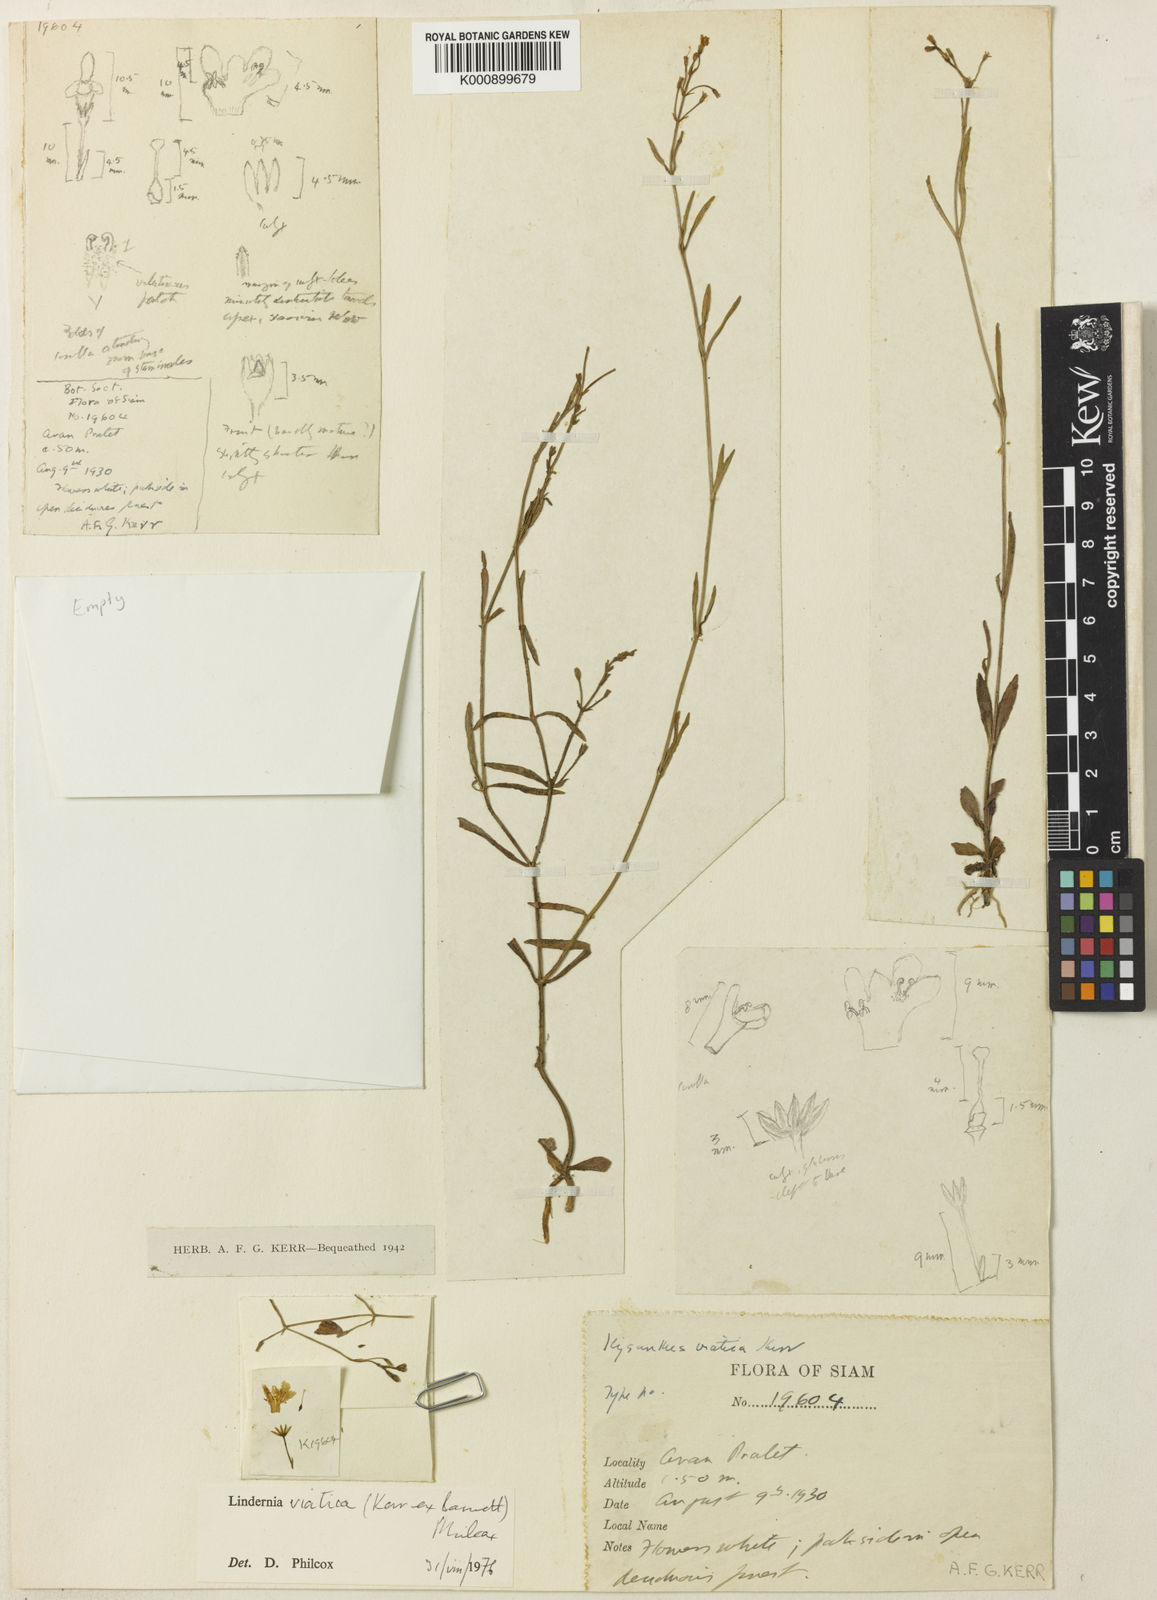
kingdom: Plantae
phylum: Tracheophyta
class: Magnoliopsida
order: Lamiales
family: Linderniaceae
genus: Bonnaya
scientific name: Bonnaya multiflora
